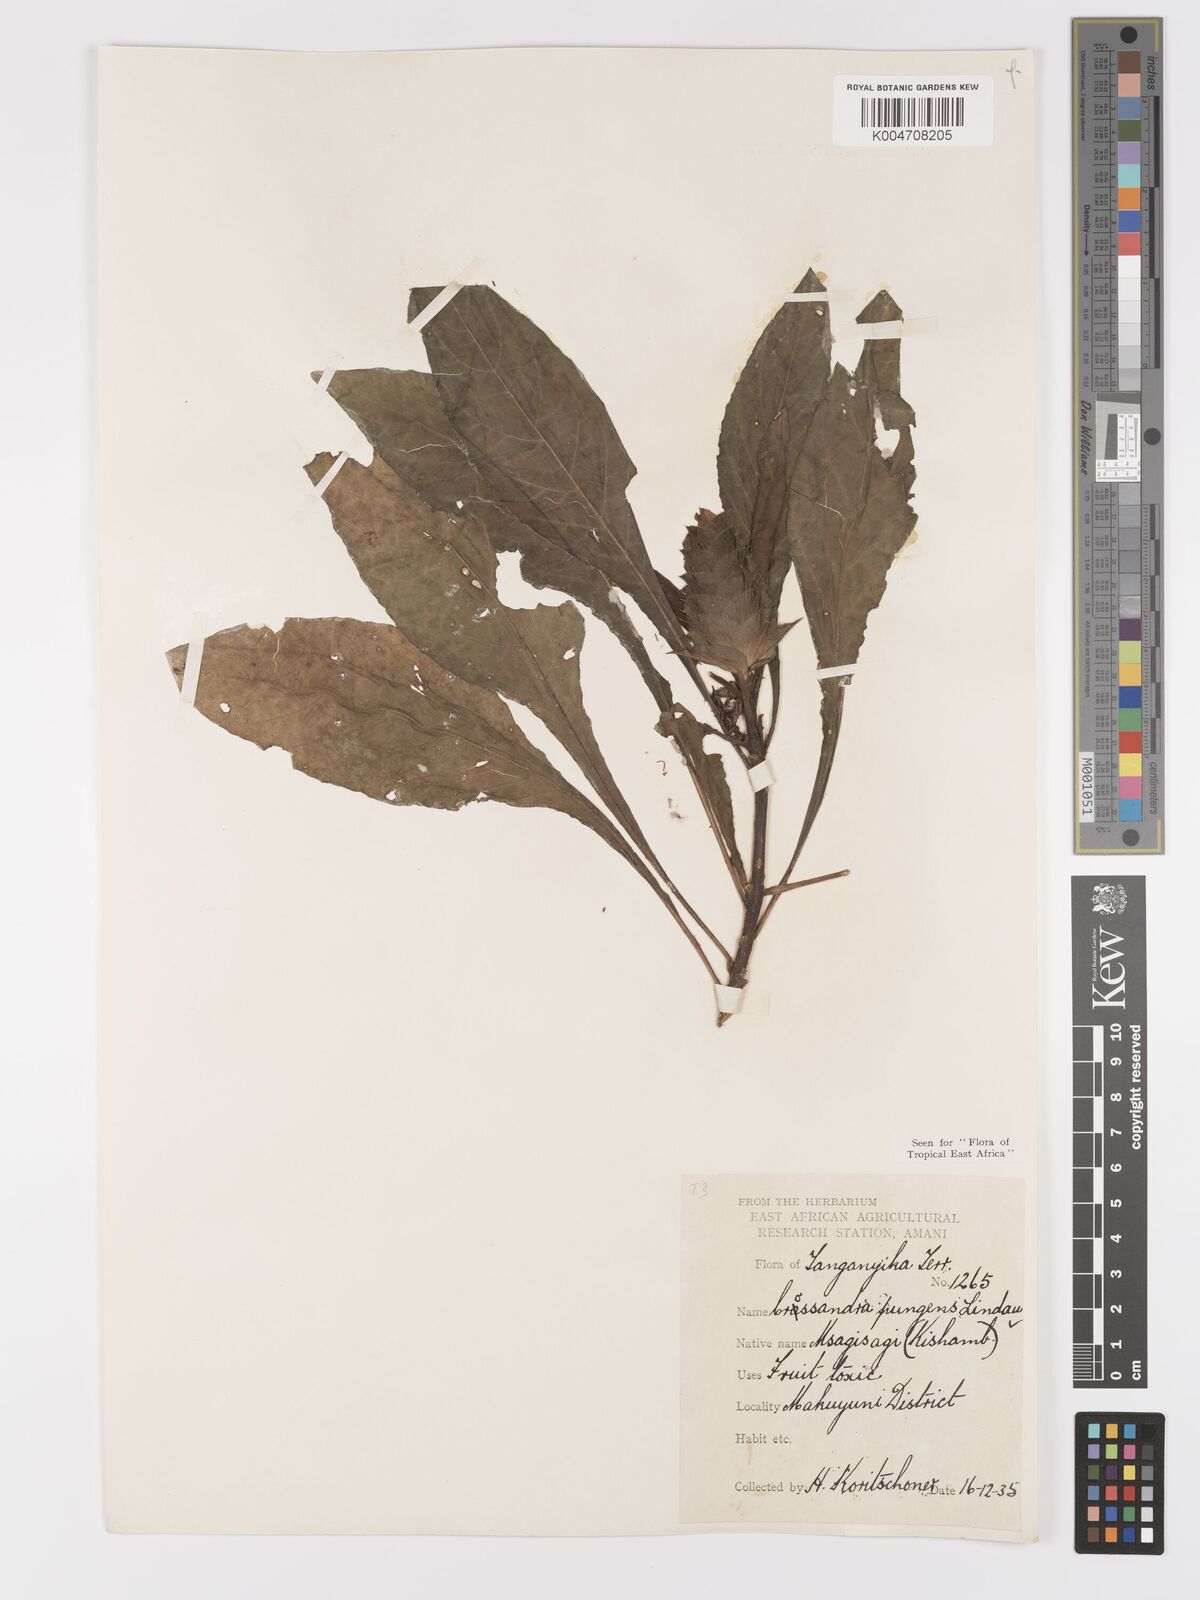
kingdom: Plantae
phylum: Tracheophyta
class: Magnoliopsida
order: Lamiales
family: Acanthaceae
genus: Crossandra
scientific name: Crossandra pungens
